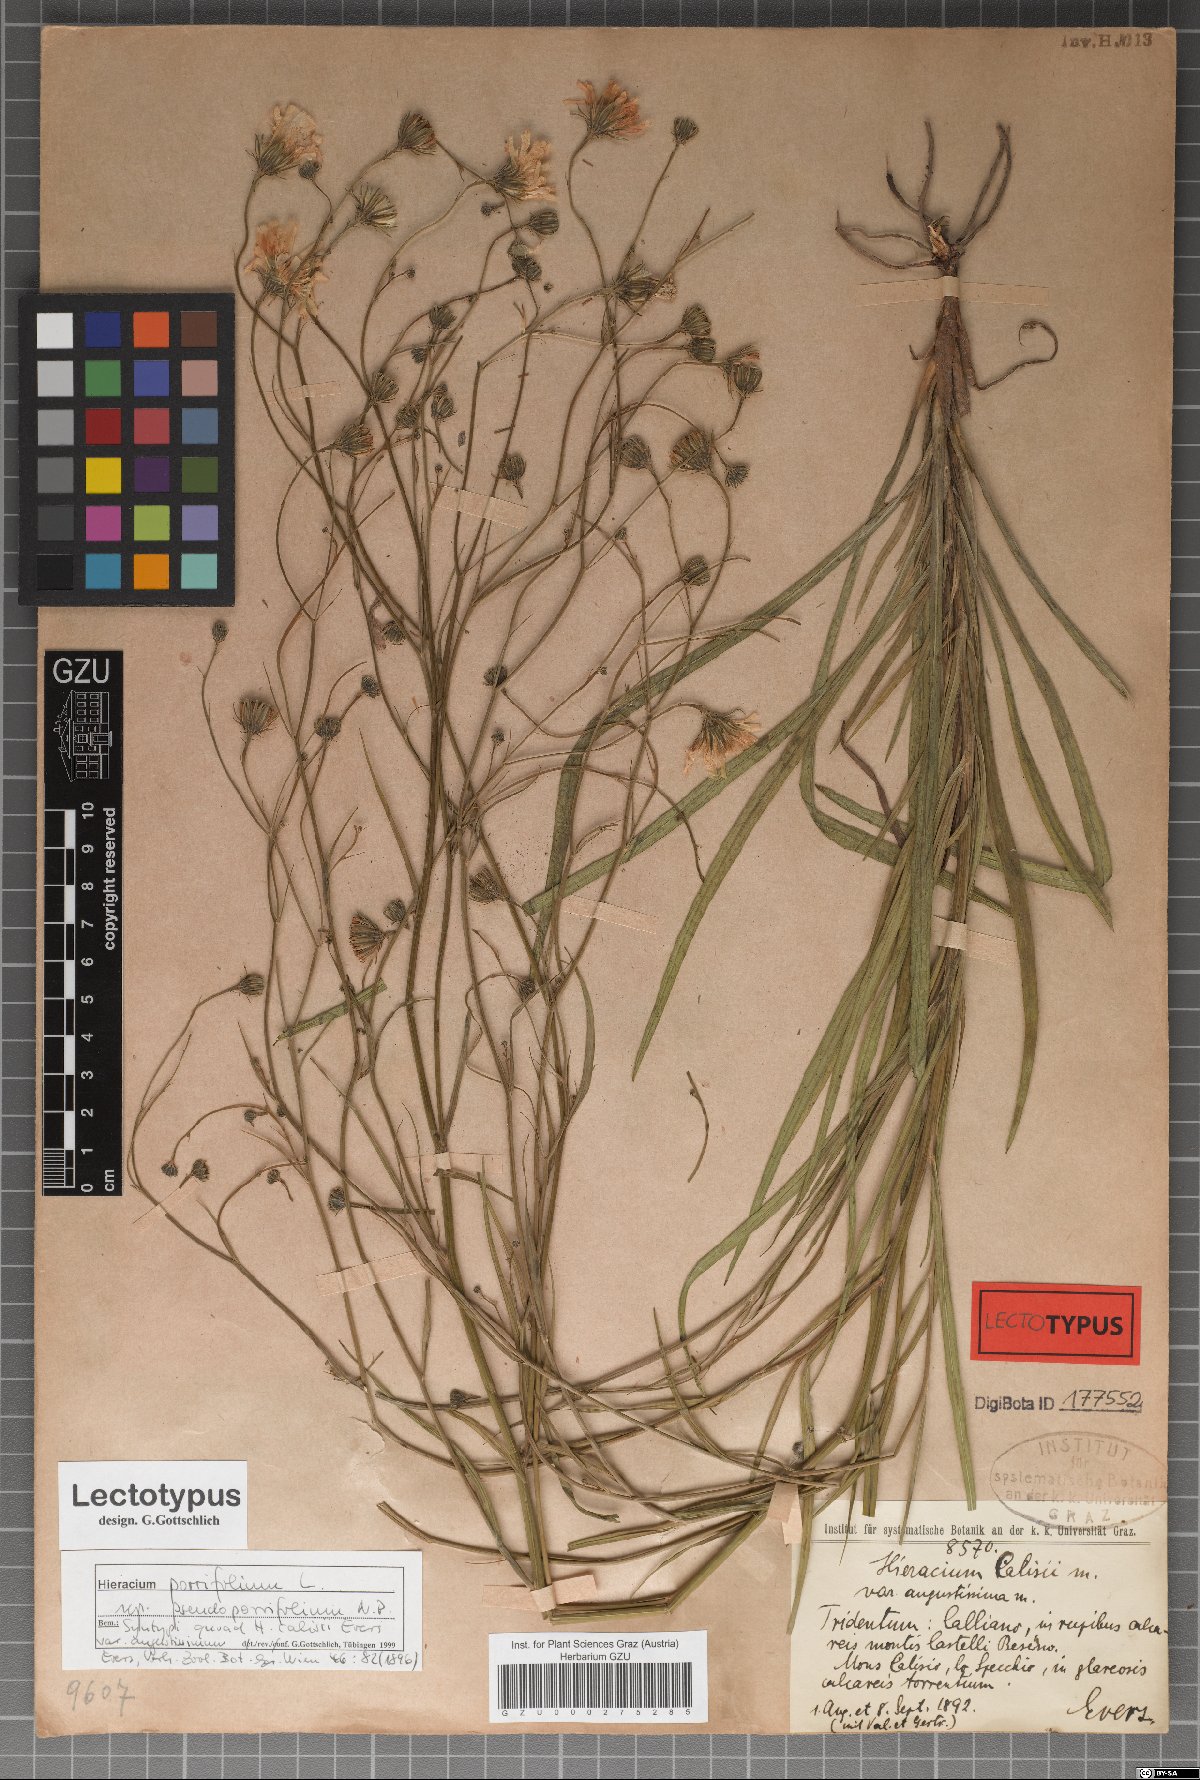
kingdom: Plantae
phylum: Tracheophyta
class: Magnoliopsida
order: Asterales
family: Asteraceae
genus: Hieracium
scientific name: Hieracium porrifolium
